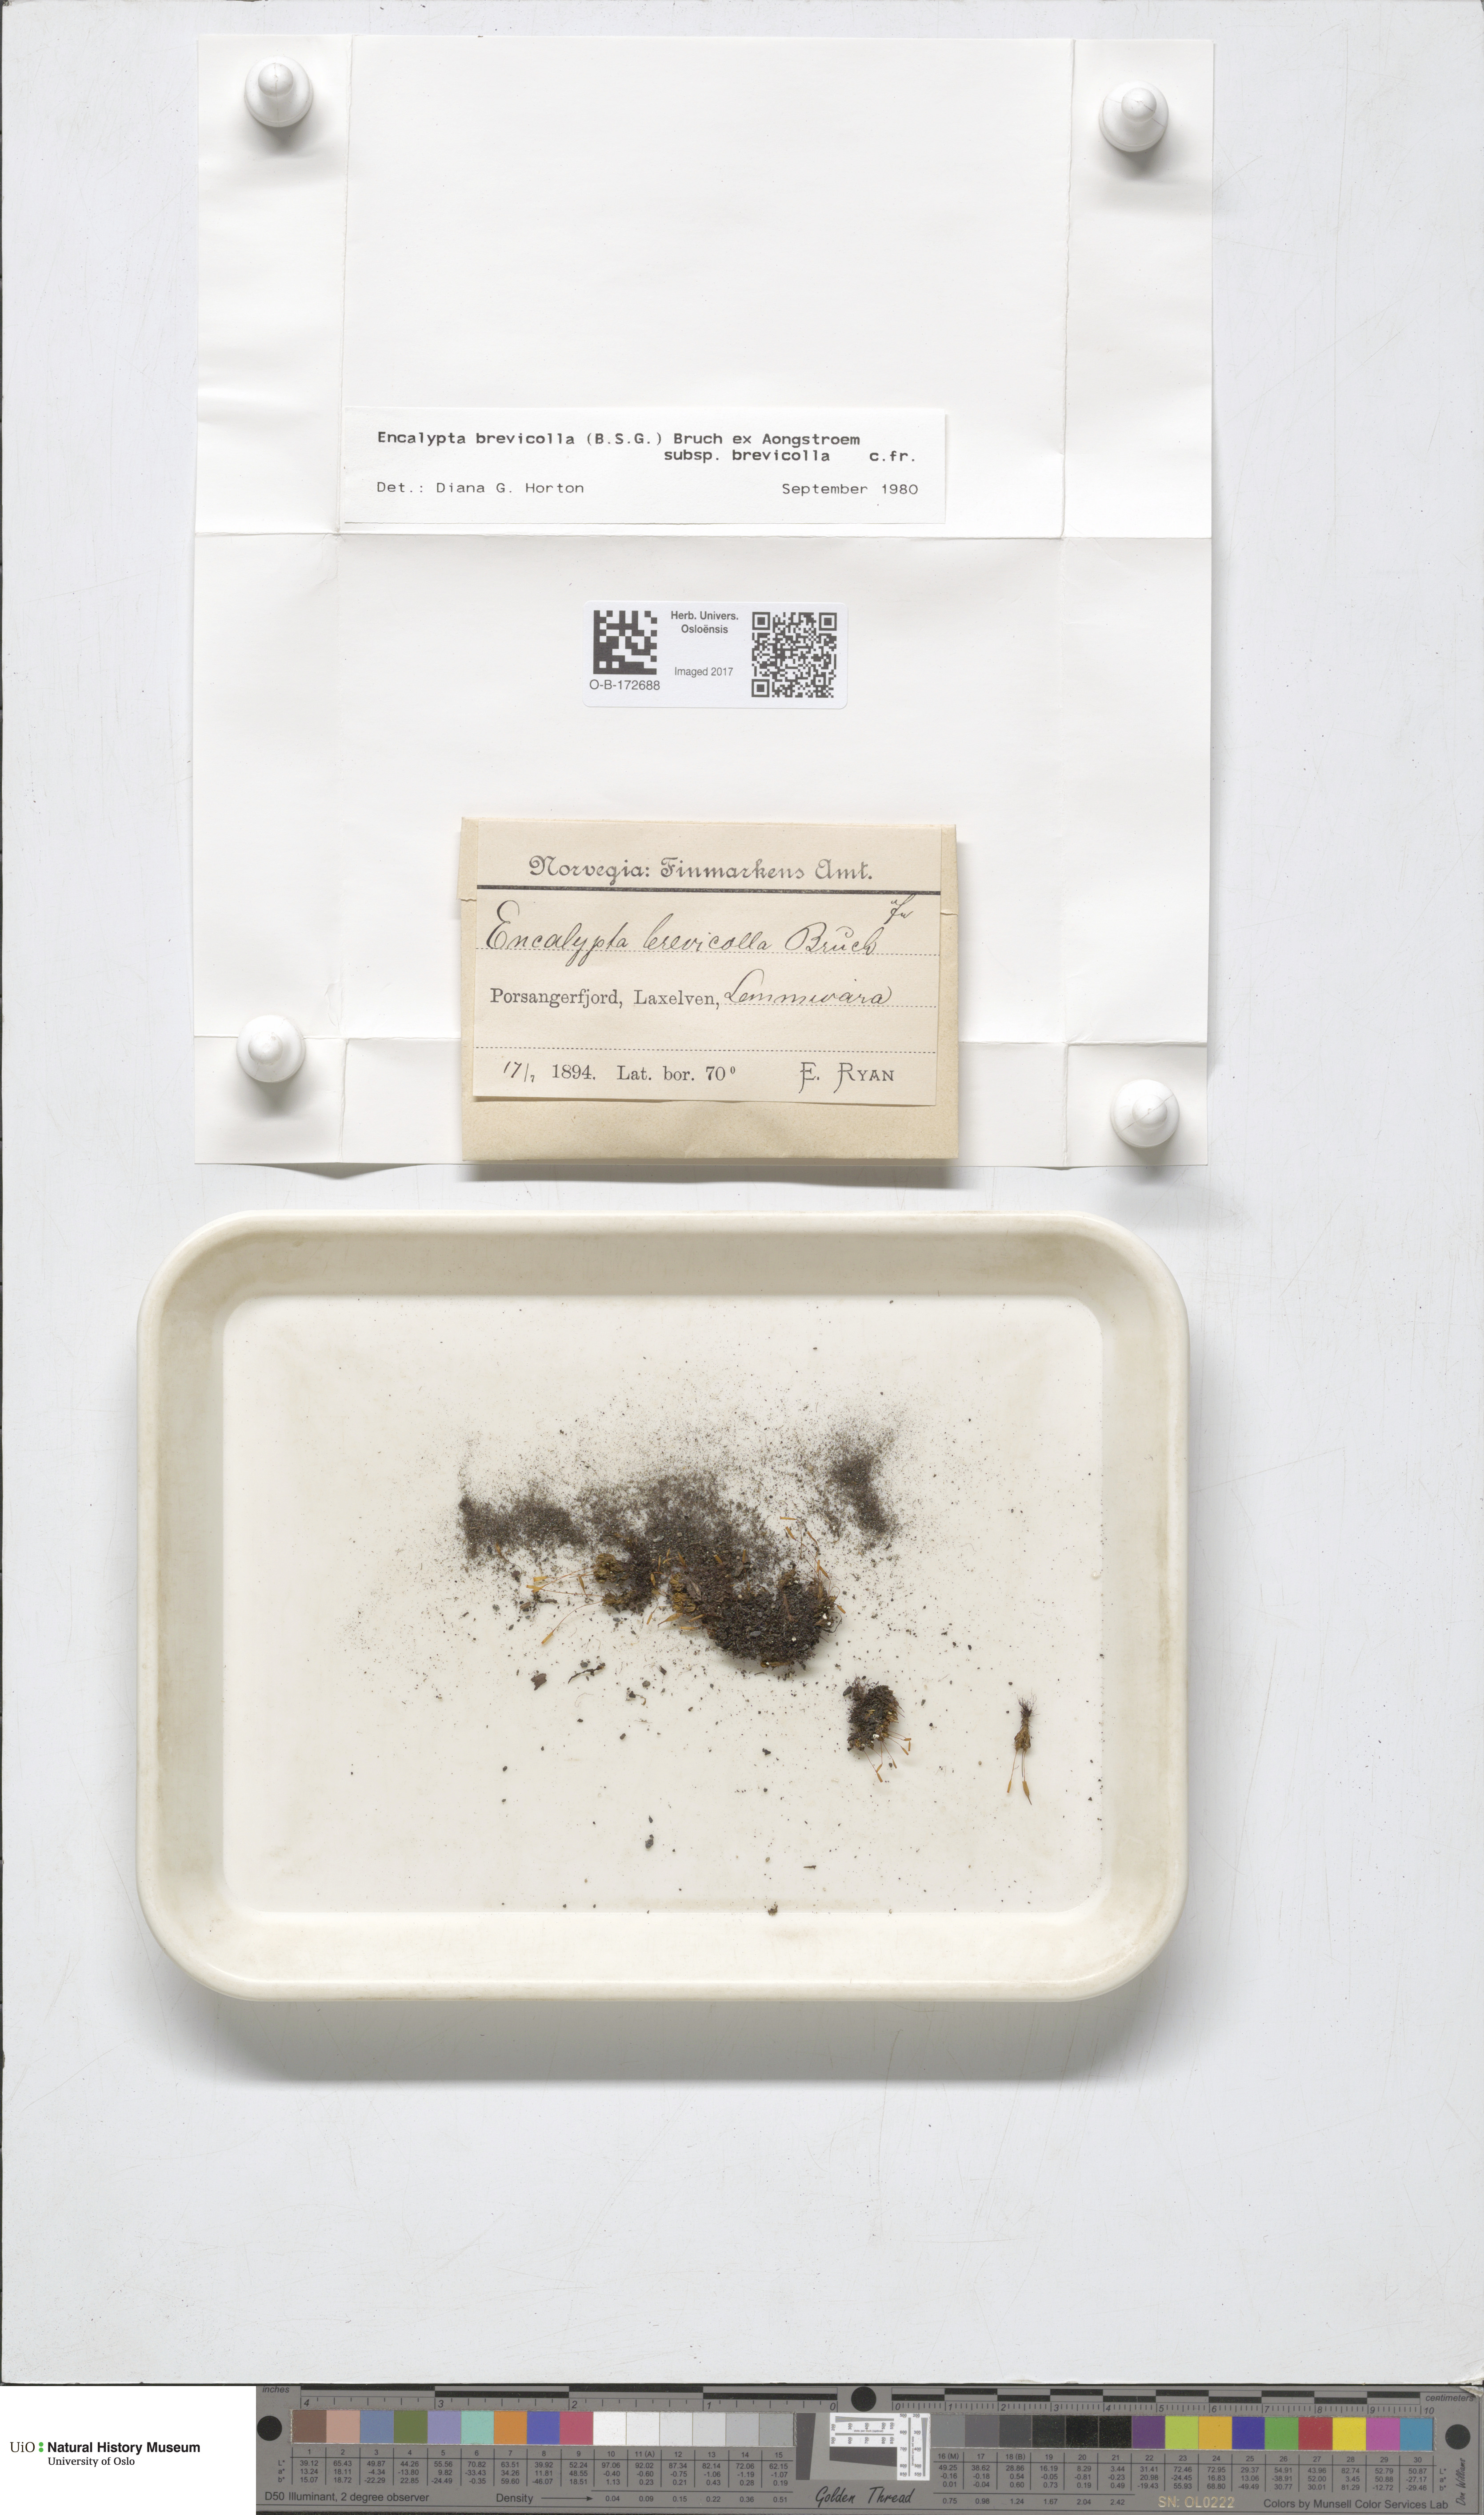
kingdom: Plantae
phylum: Bryophyta
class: Bryopsida
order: Encalyptales
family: Encalyptaceae
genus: Encalypta
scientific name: Encalypta brevicolla
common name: White-mouthed extinguisher-moss
